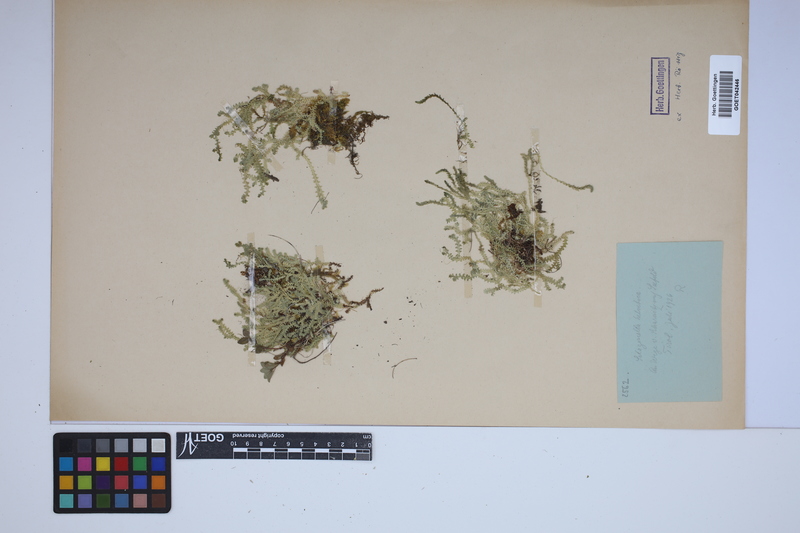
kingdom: Plantae
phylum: Tracheophyta
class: Lycopodiopsida
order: Selaginellales
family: Selaginellaceae
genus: Selaginella
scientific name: Selaginella helvetica
